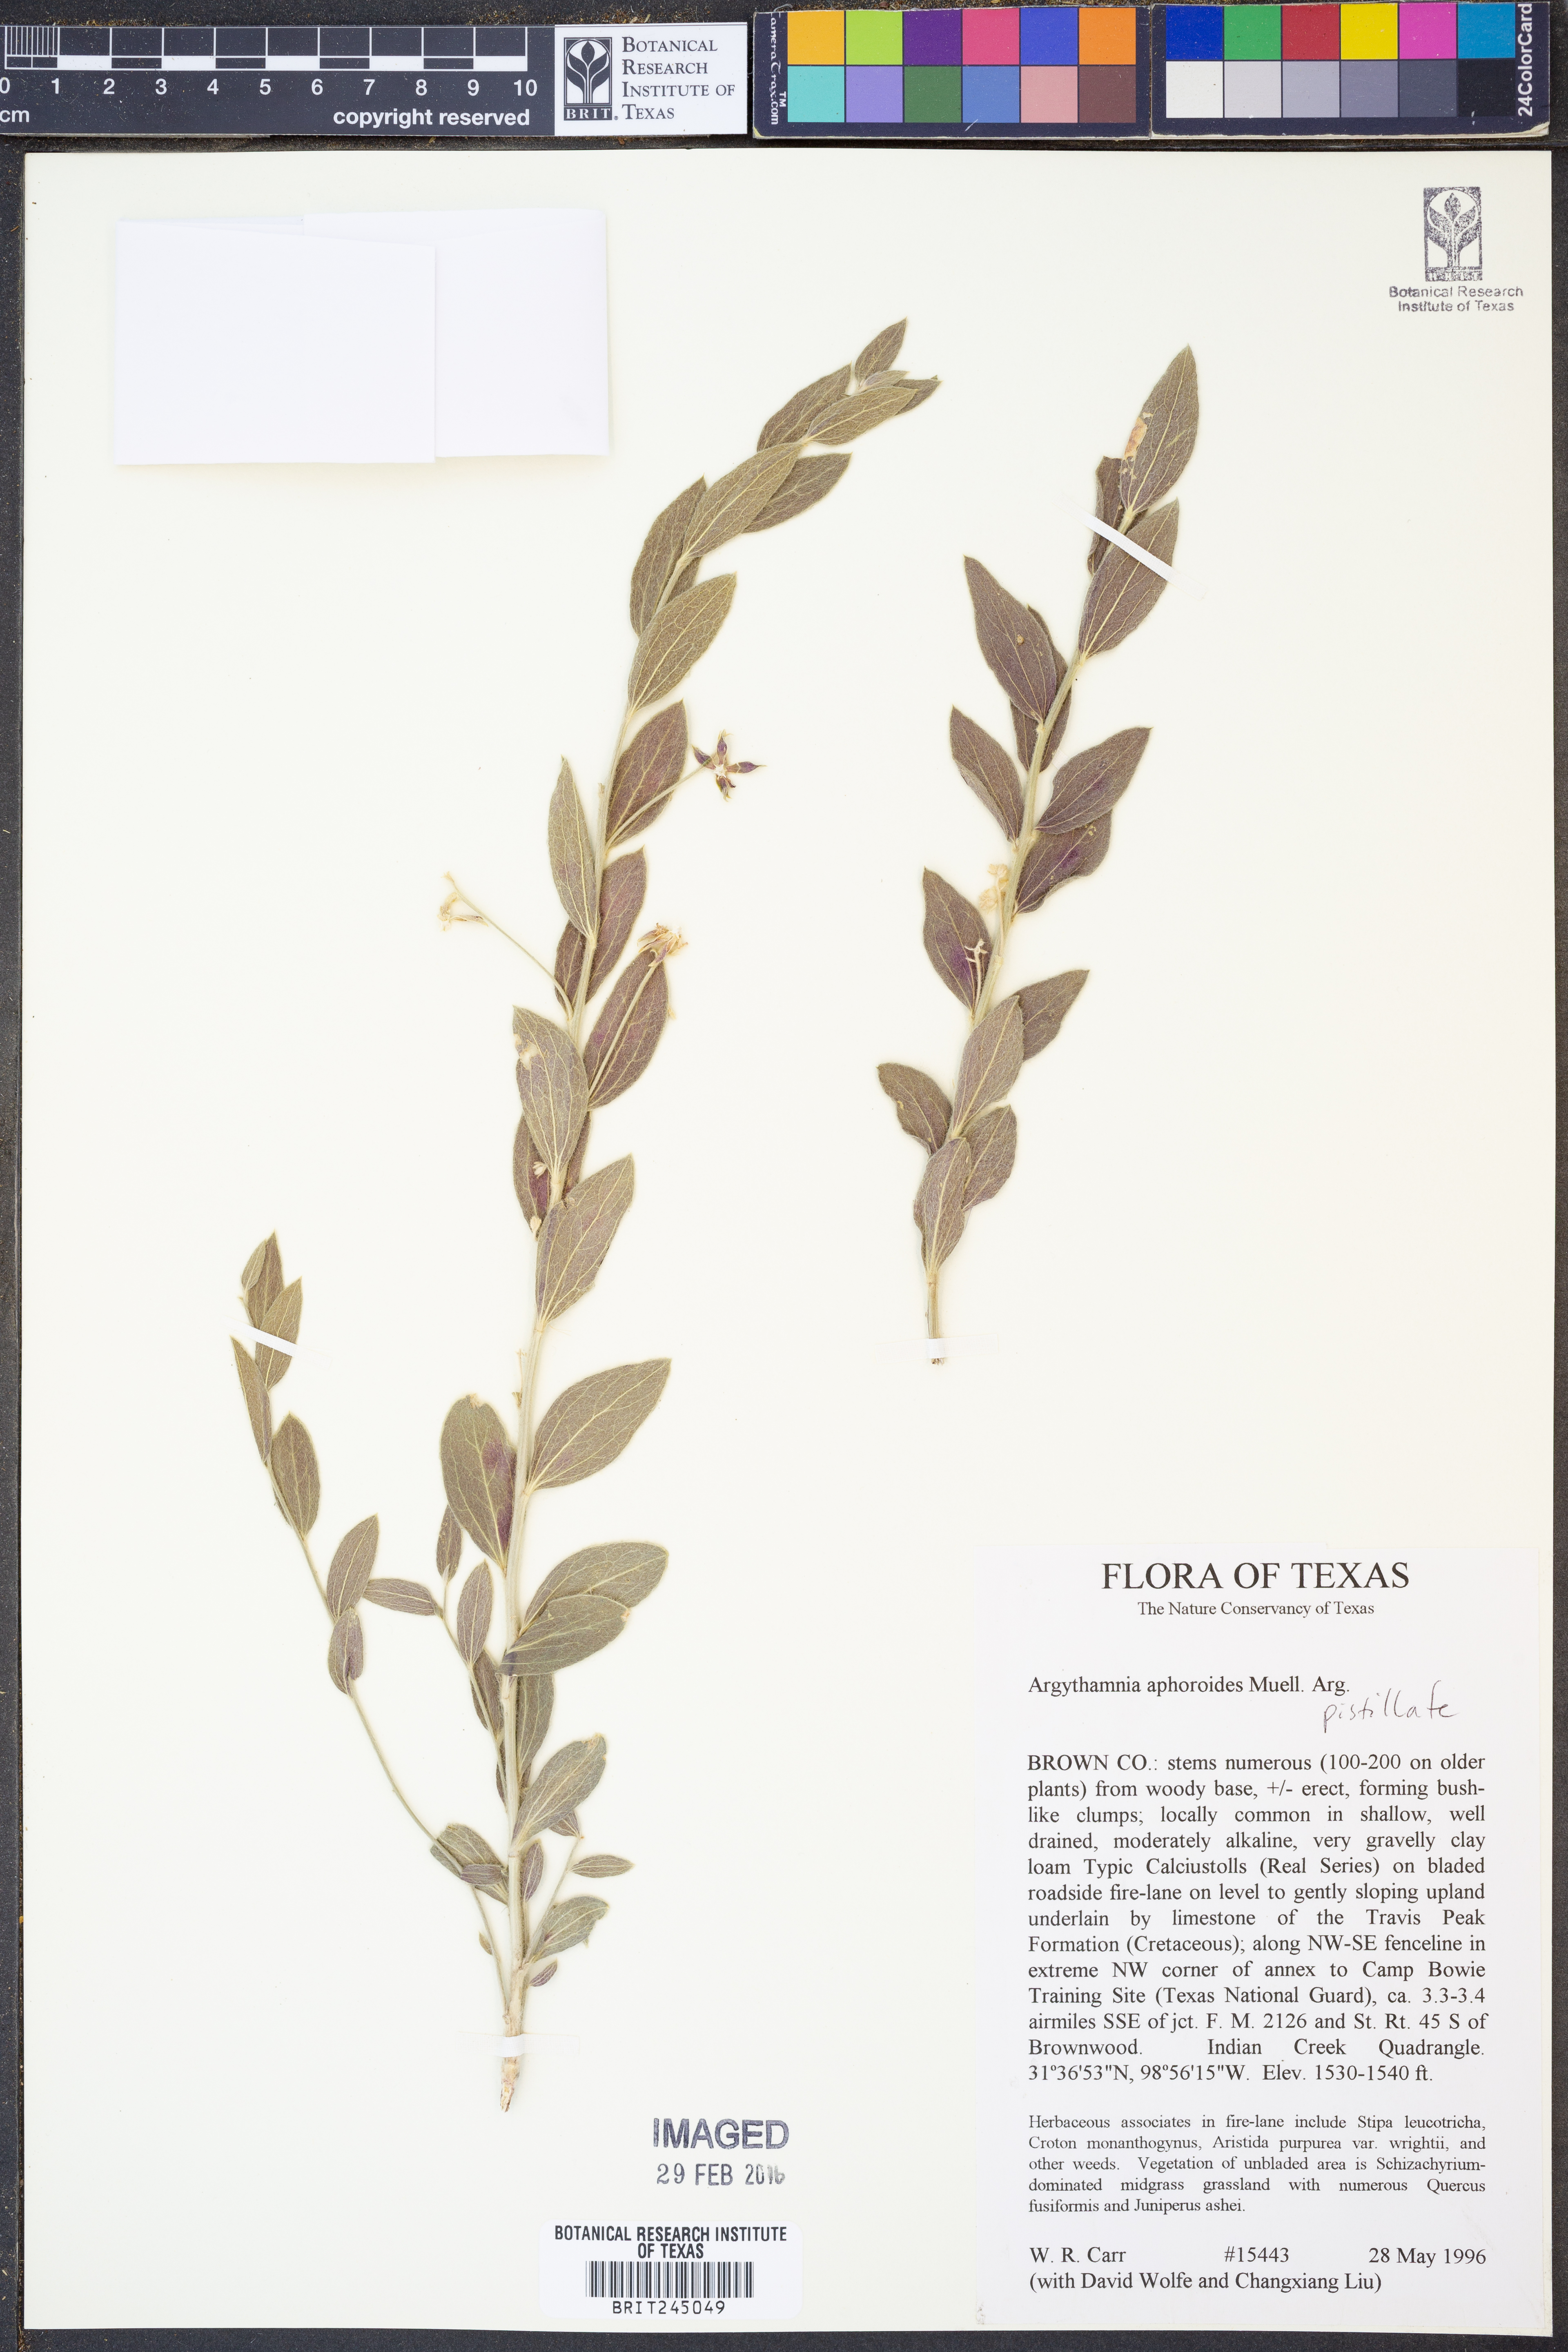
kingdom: Plantae
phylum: Tracheophyta
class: Magnoliopsida
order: Malpighiales
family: Euphorbiaceae
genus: Ditaxis
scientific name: Ditaxis aphoroides
